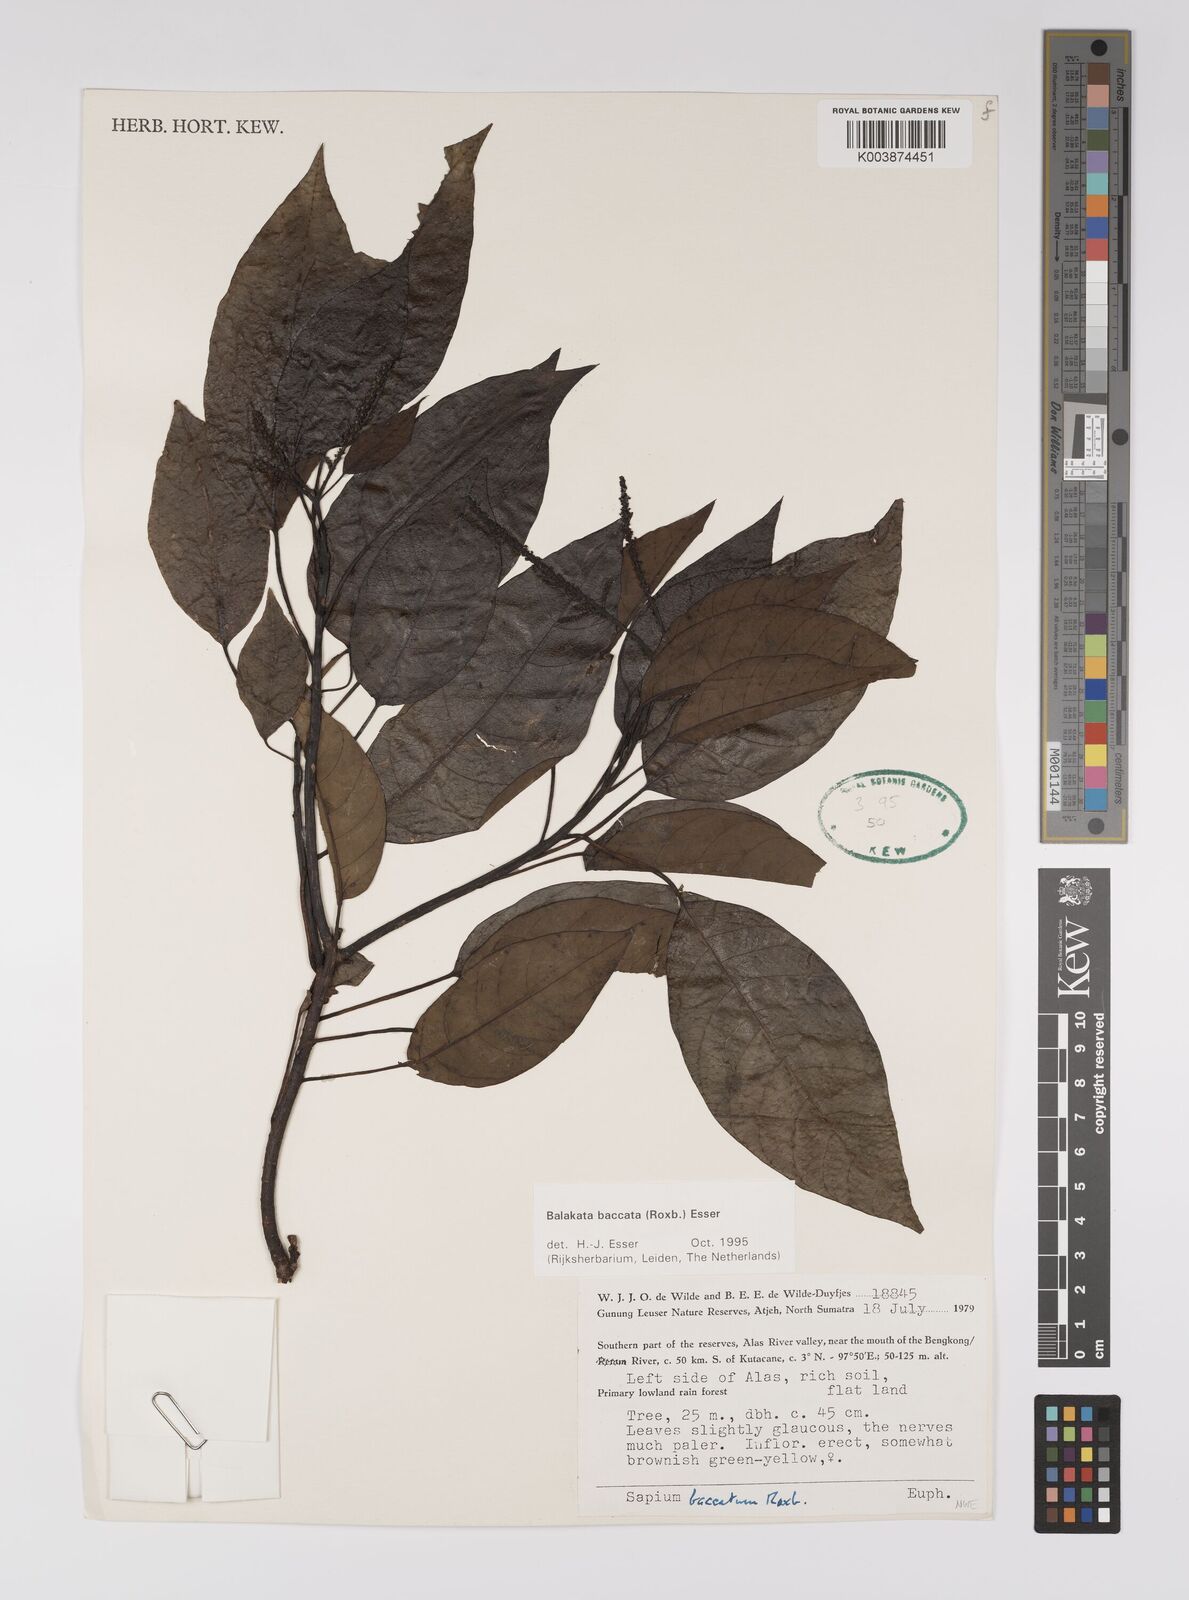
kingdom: Plantae
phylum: Tracheophyta
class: Magnoliopsida
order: Malpighiales
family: Euphorbiaceae
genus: Balakata
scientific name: Balakata baccata
